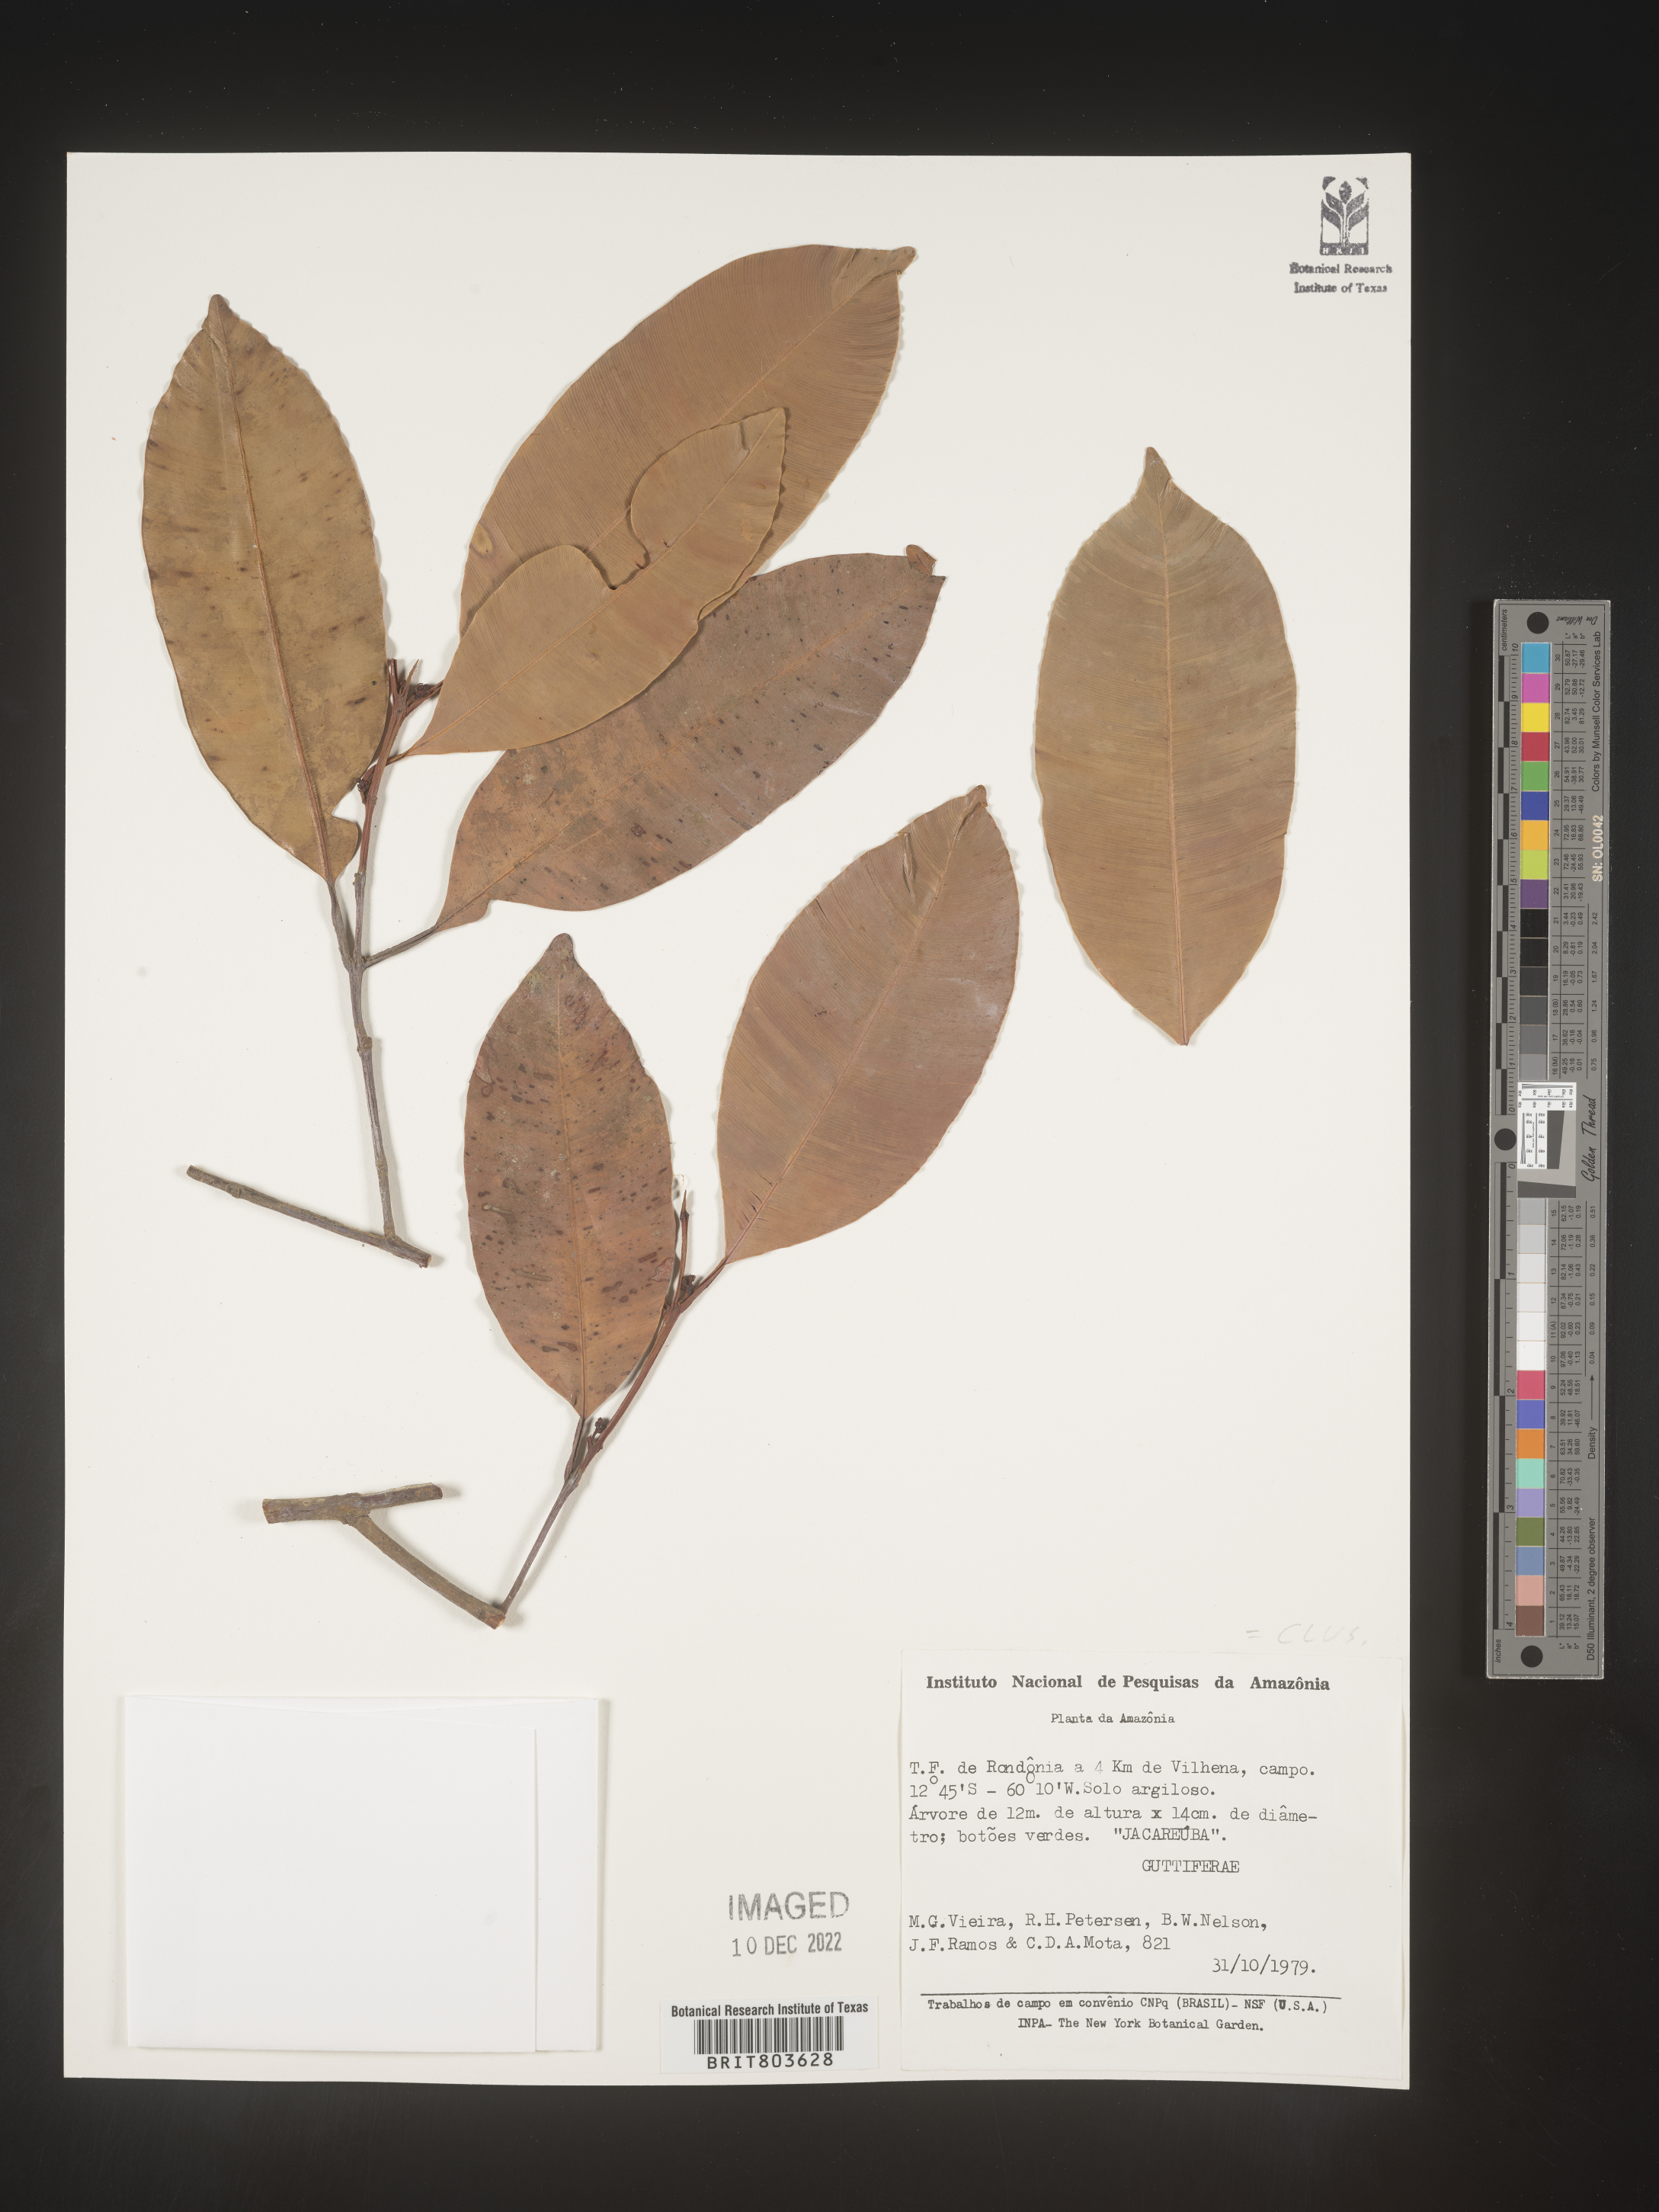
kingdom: Plantae
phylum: Tracheophyta
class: Magnoliopsida
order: Malpighiales
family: Clusiaceae
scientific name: Clusiaceae
